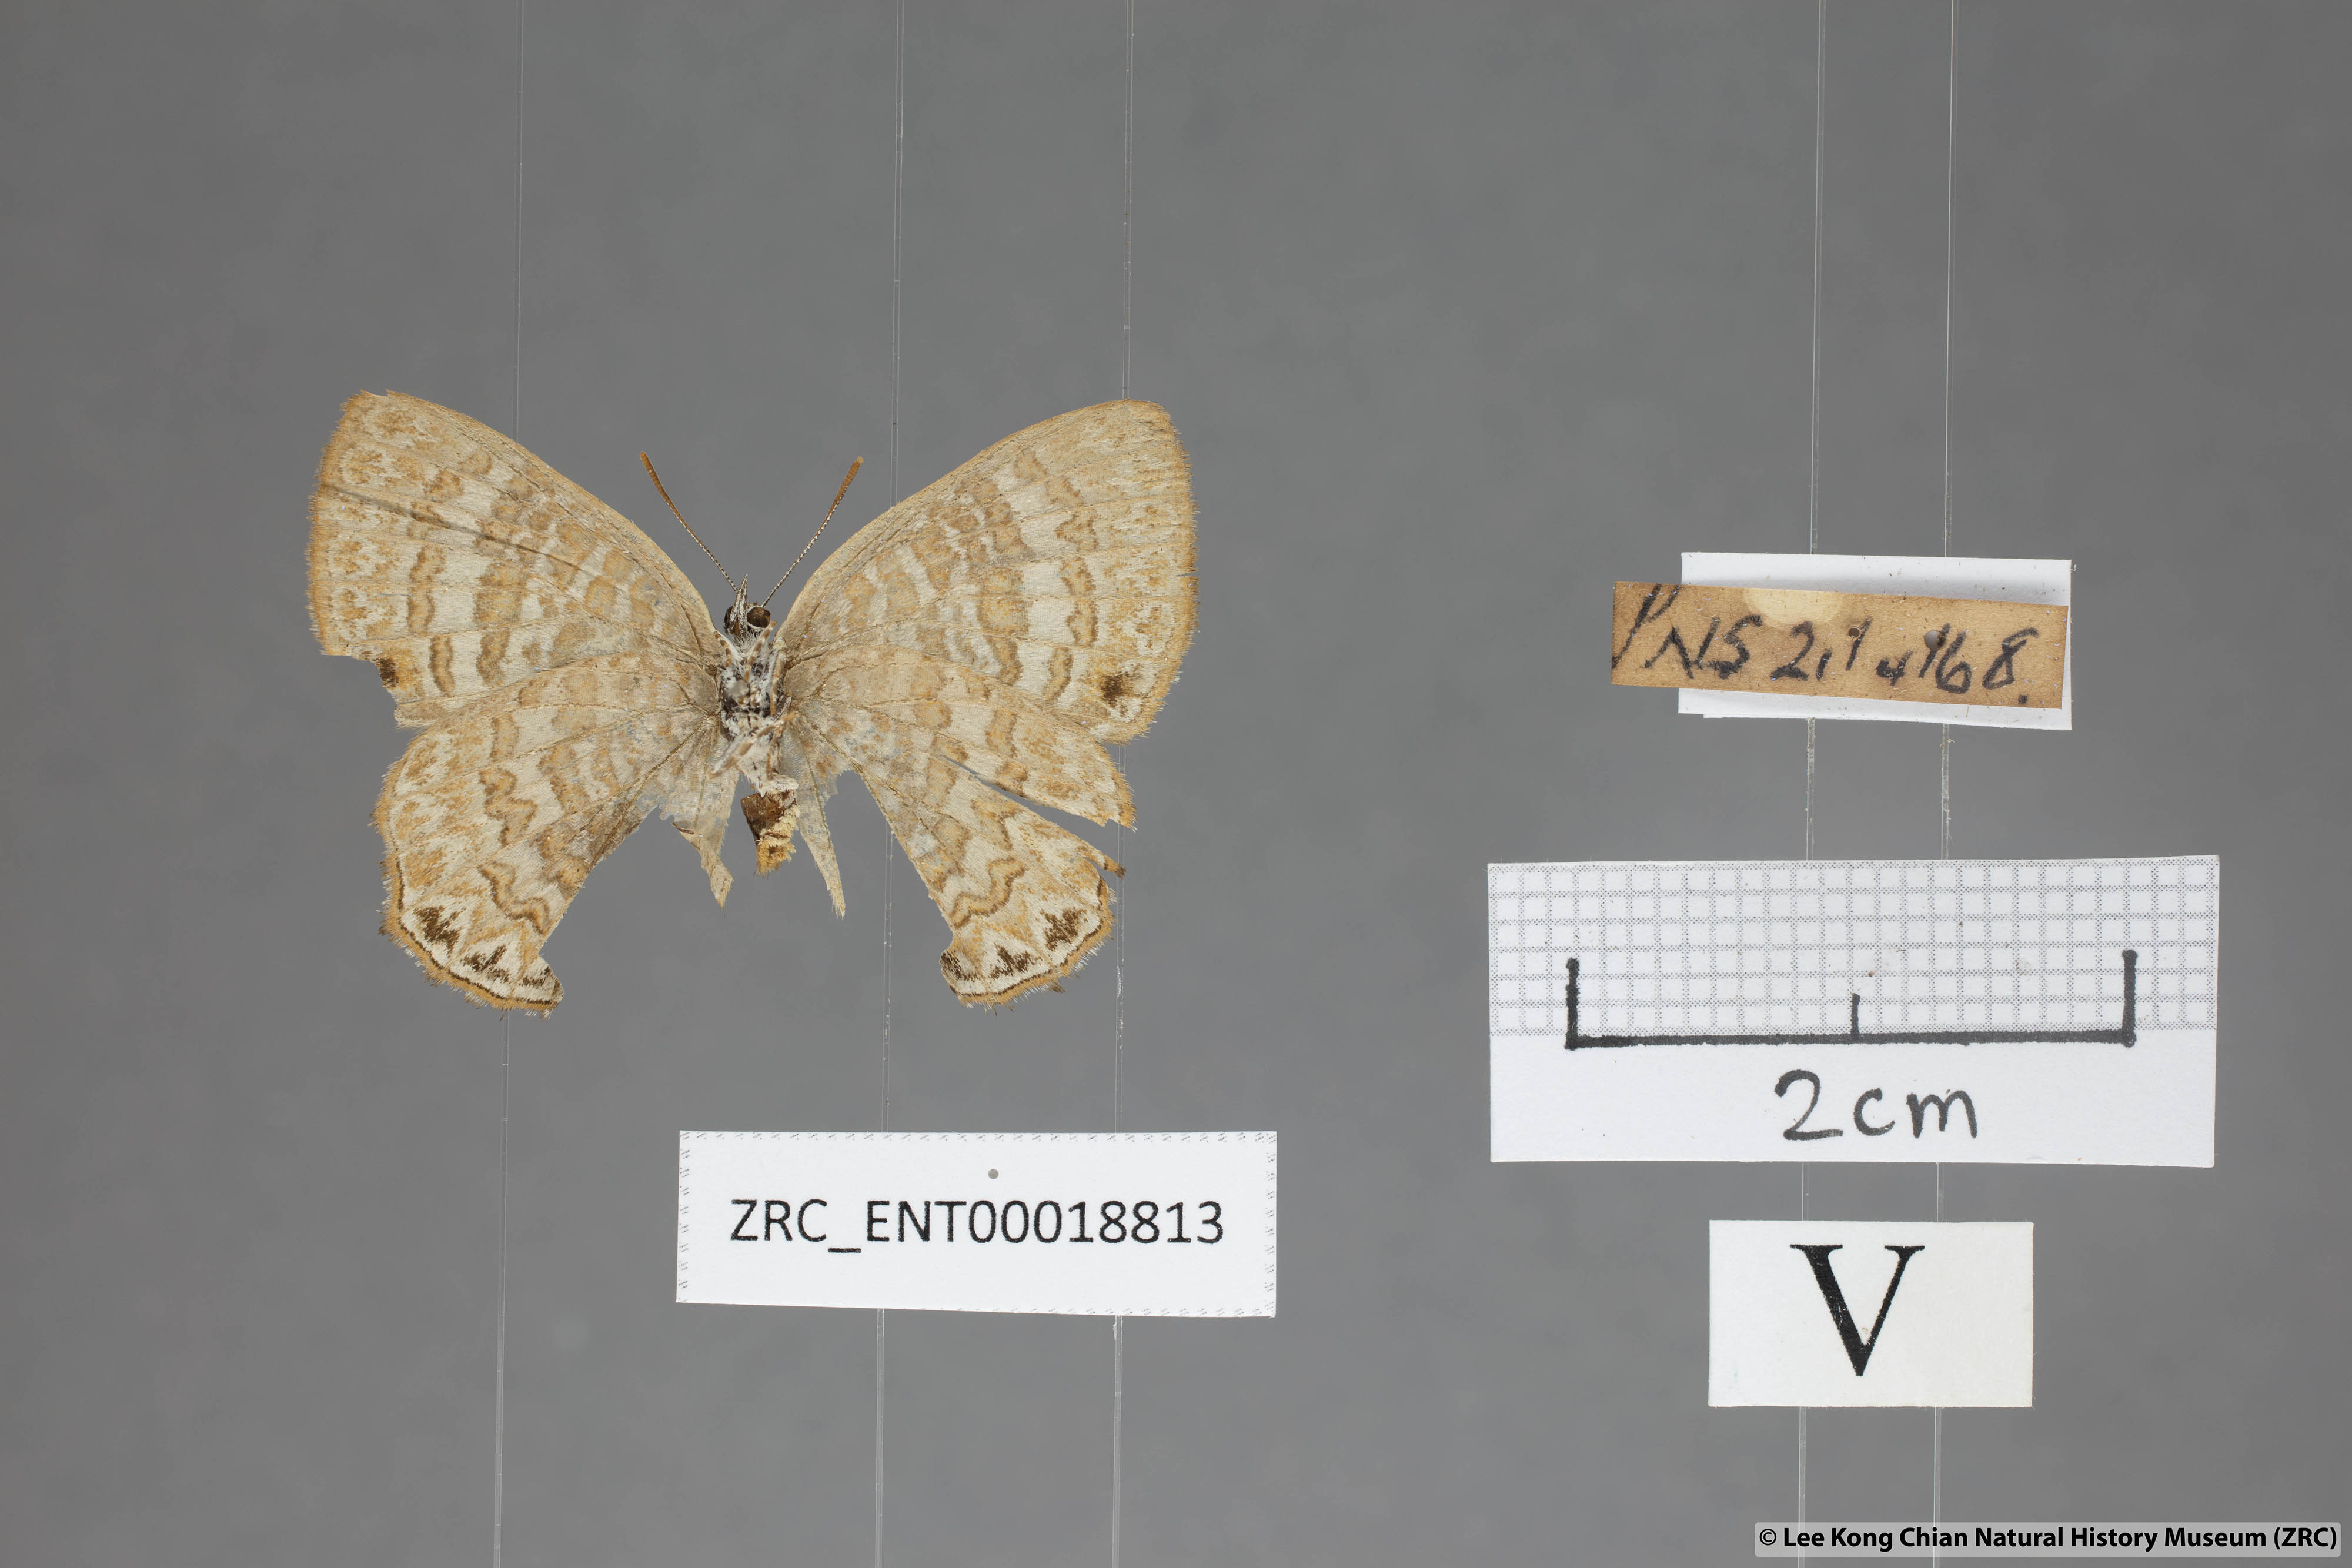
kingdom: Animalia
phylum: Arthropoda
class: Insecta
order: Lepidoptera
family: Lycaenidae
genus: Poritia
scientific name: Poritia pleurata
